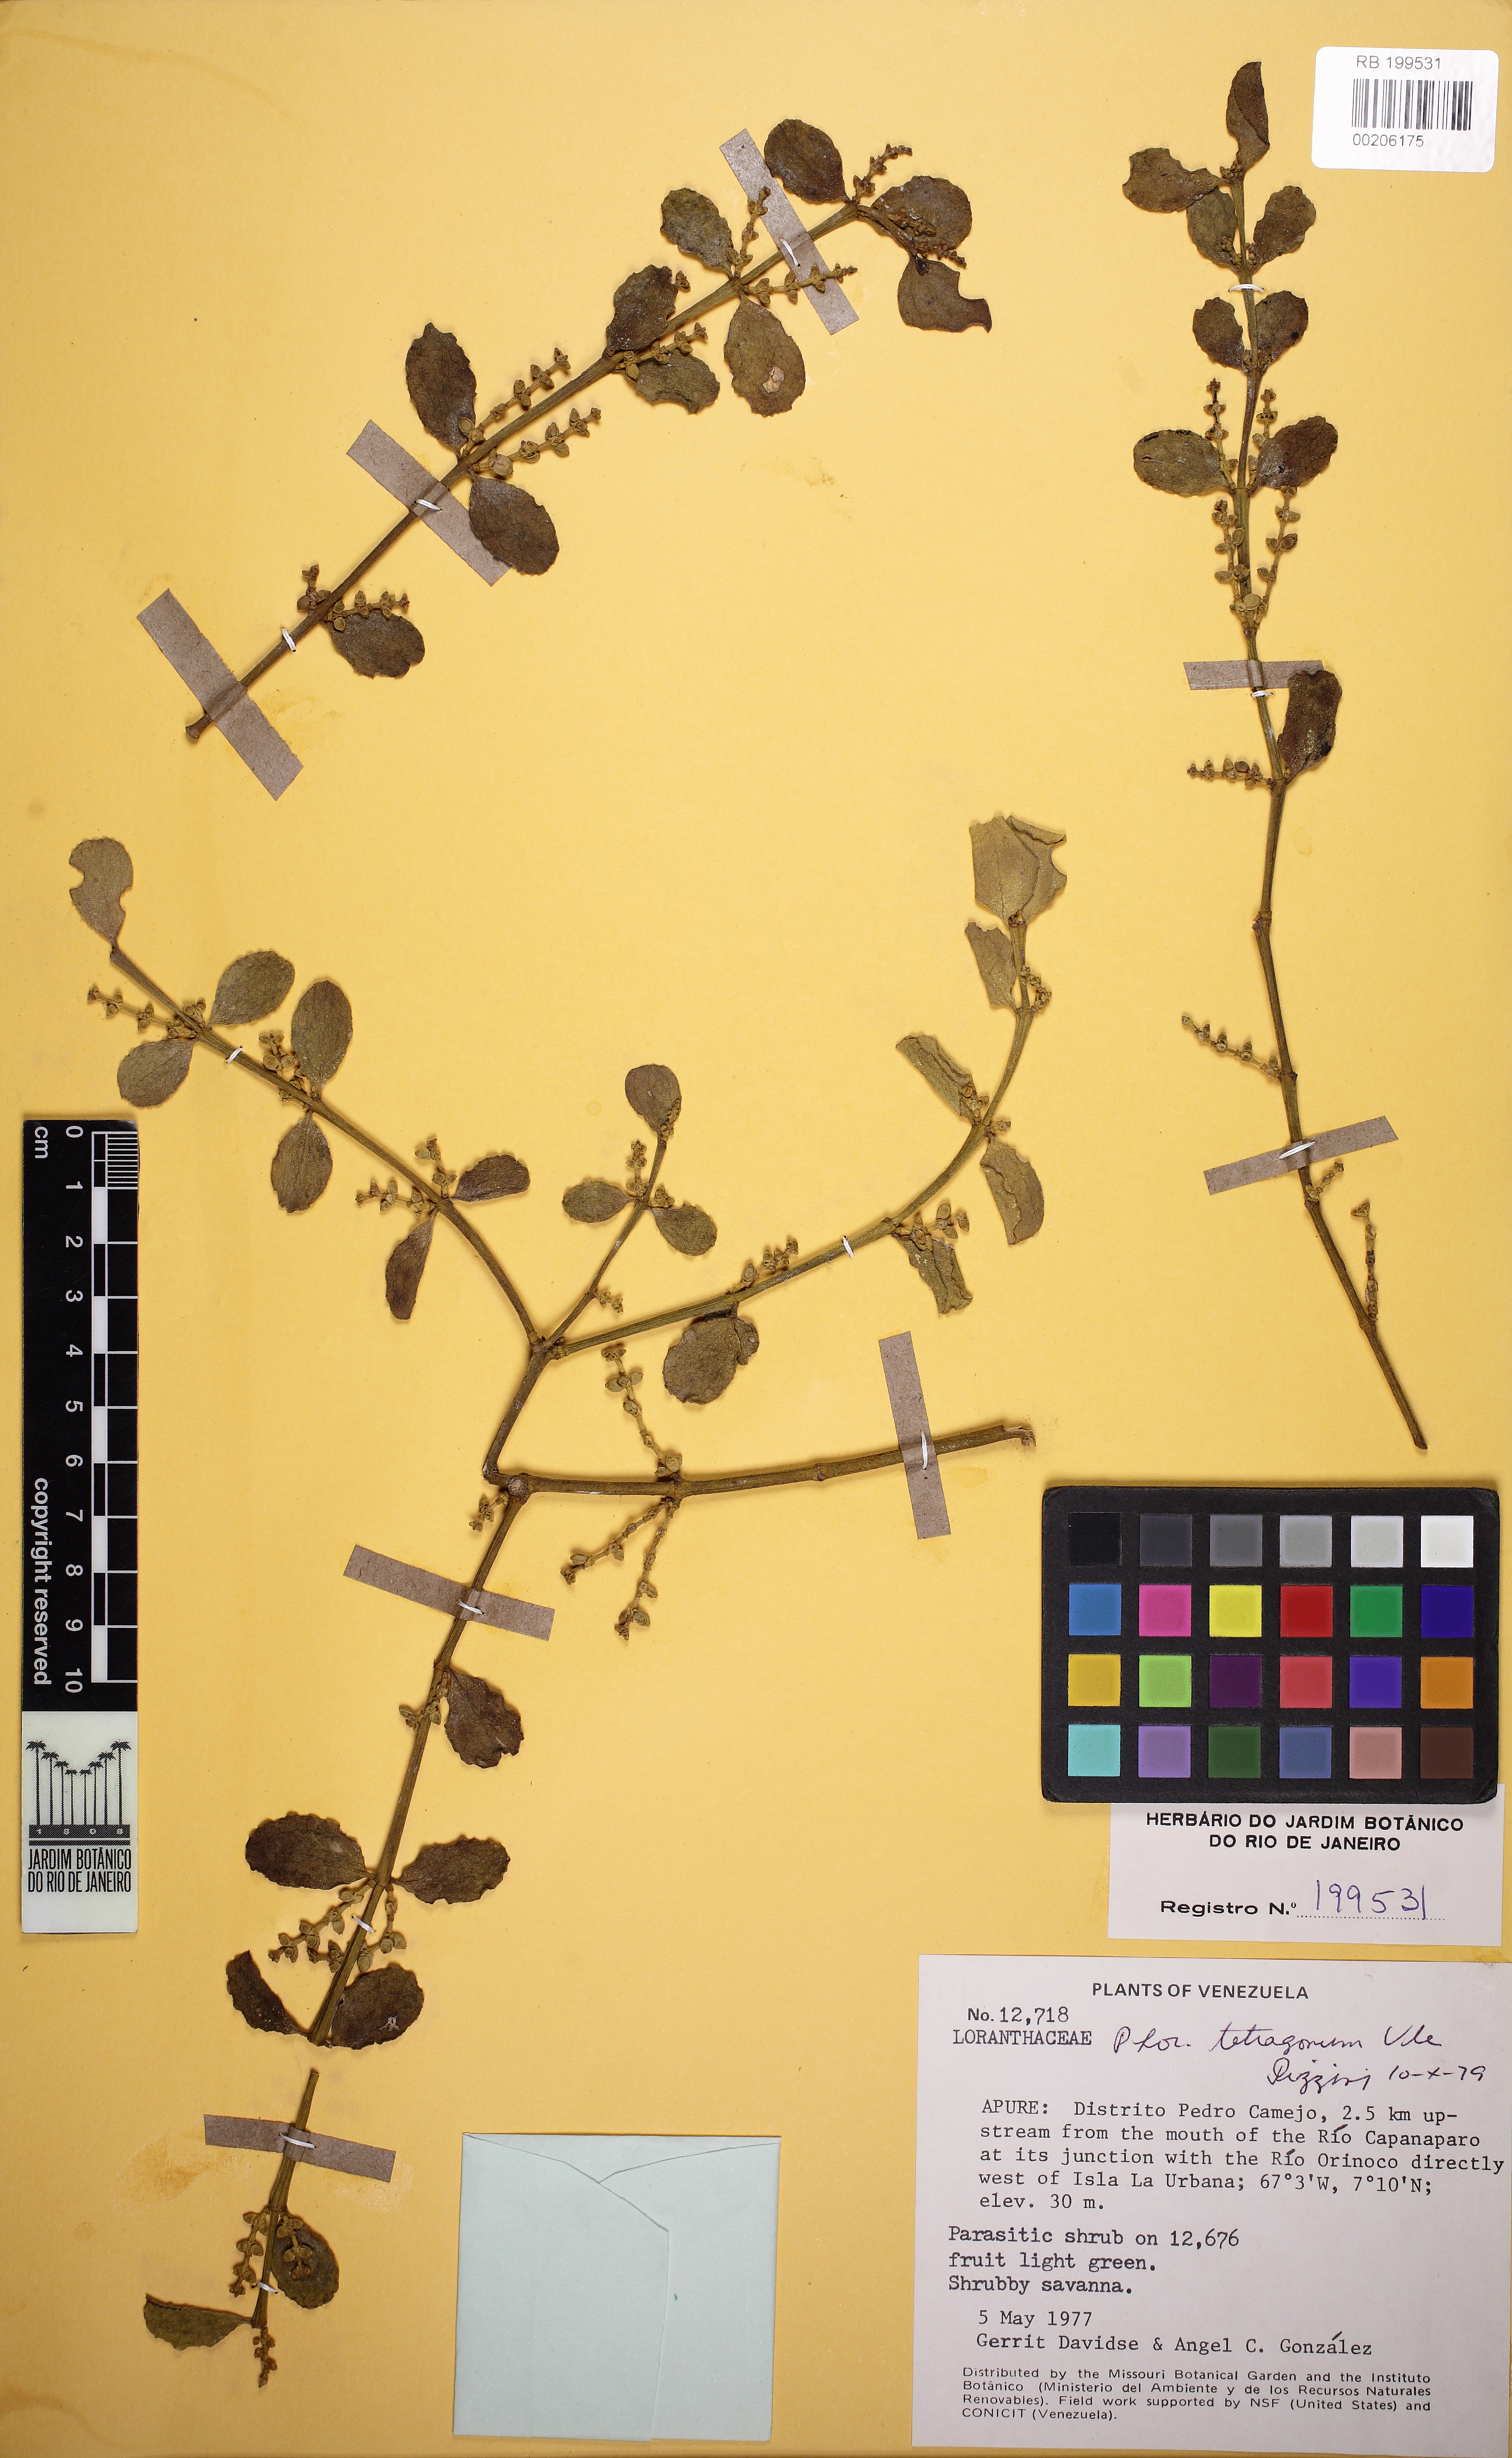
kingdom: Plantae
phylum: Tracheophyta
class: Magnoliopsida
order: Santalales
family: Viscaceae
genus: Phoradendron
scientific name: Phoradendron mucronatum
